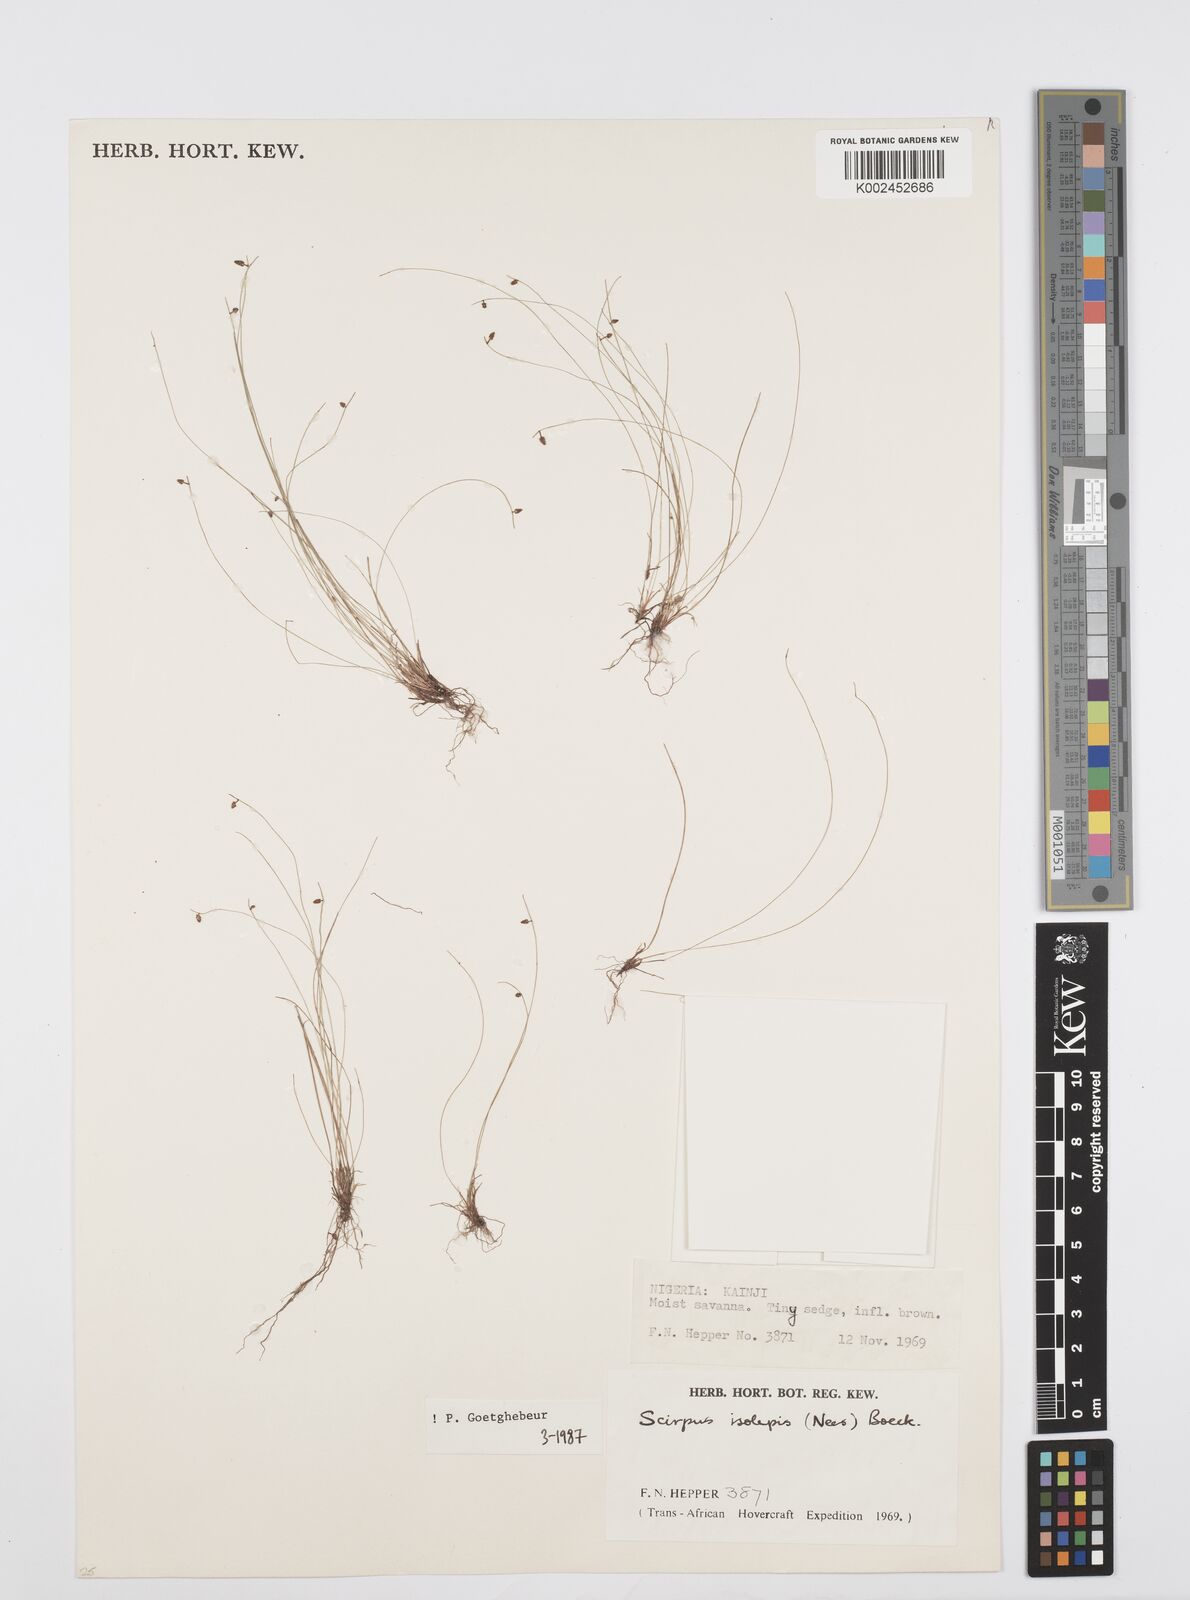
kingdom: Plantae
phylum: Tracheophyta
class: Liliopsida
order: Poales
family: Cyperaceae
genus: Cyperus
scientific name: Cyperus hemisphaericus
